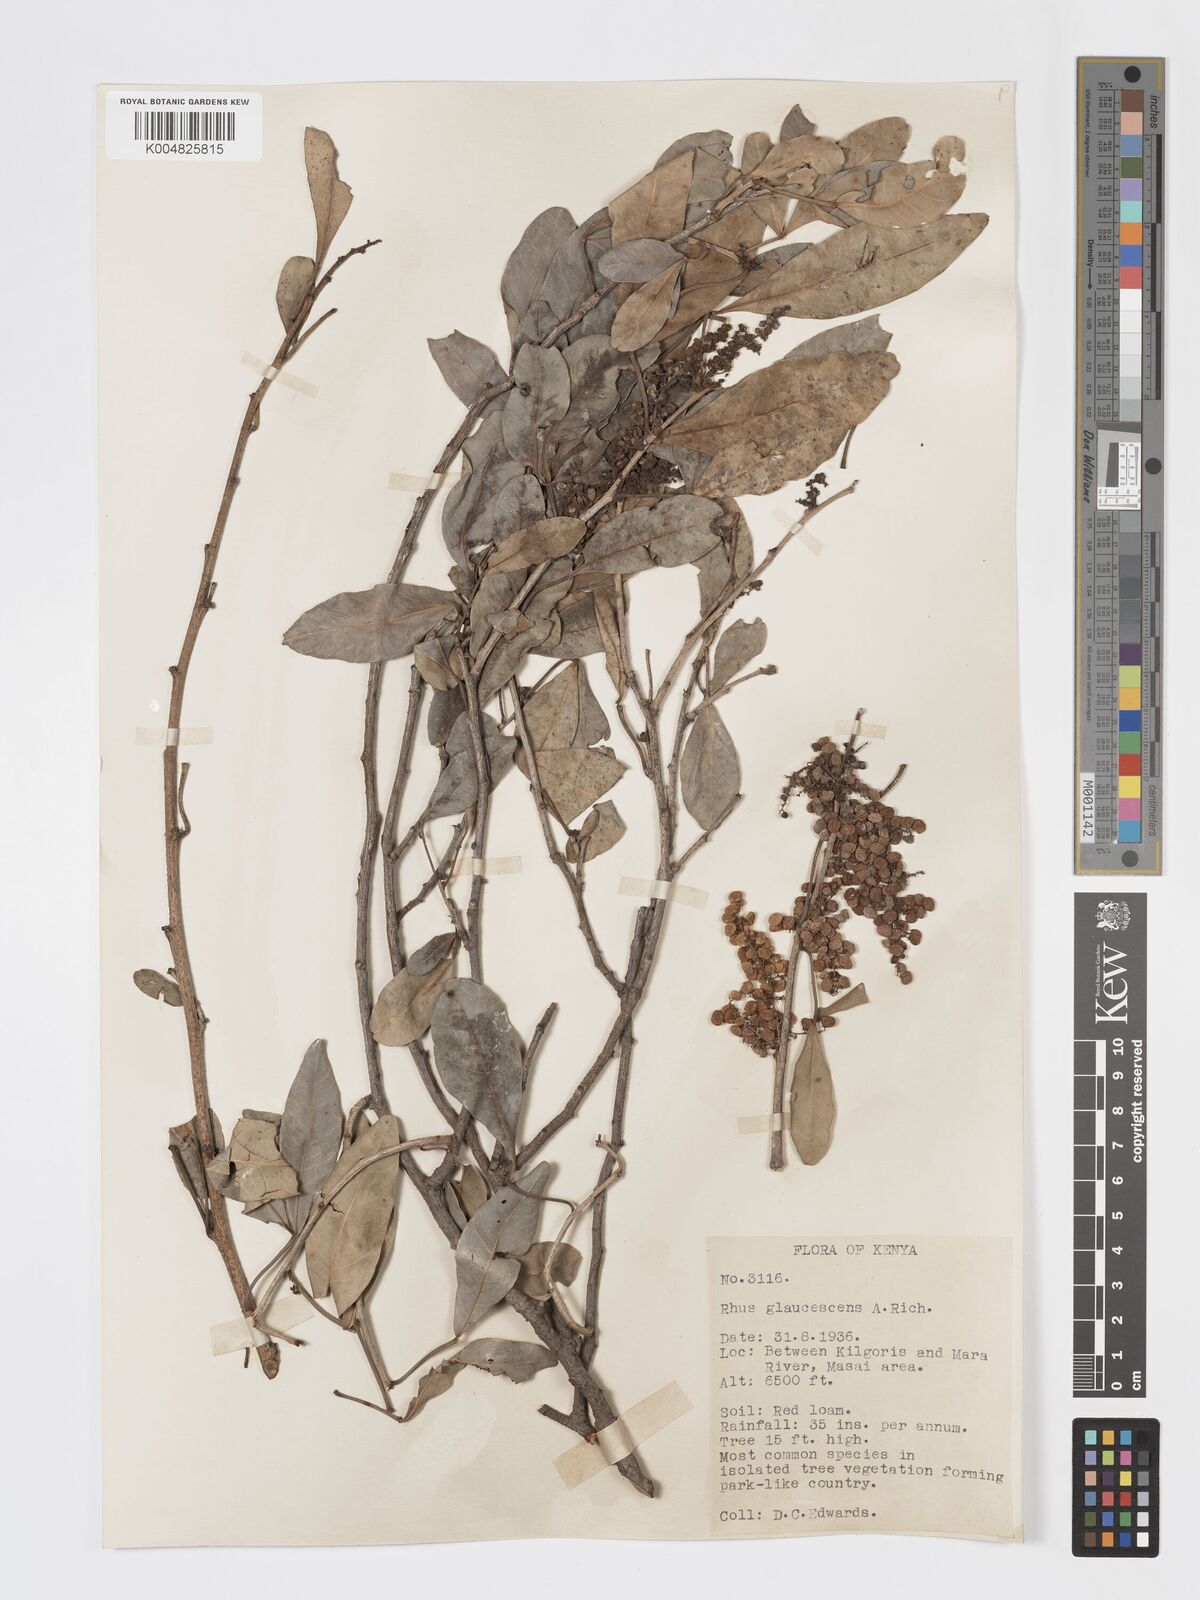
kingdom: Plantae
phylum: Tracheophyta
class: Magnoliopsida
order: Sapindales
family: Anacardiaceae
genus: Searsia
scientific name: Searsia natalensis
